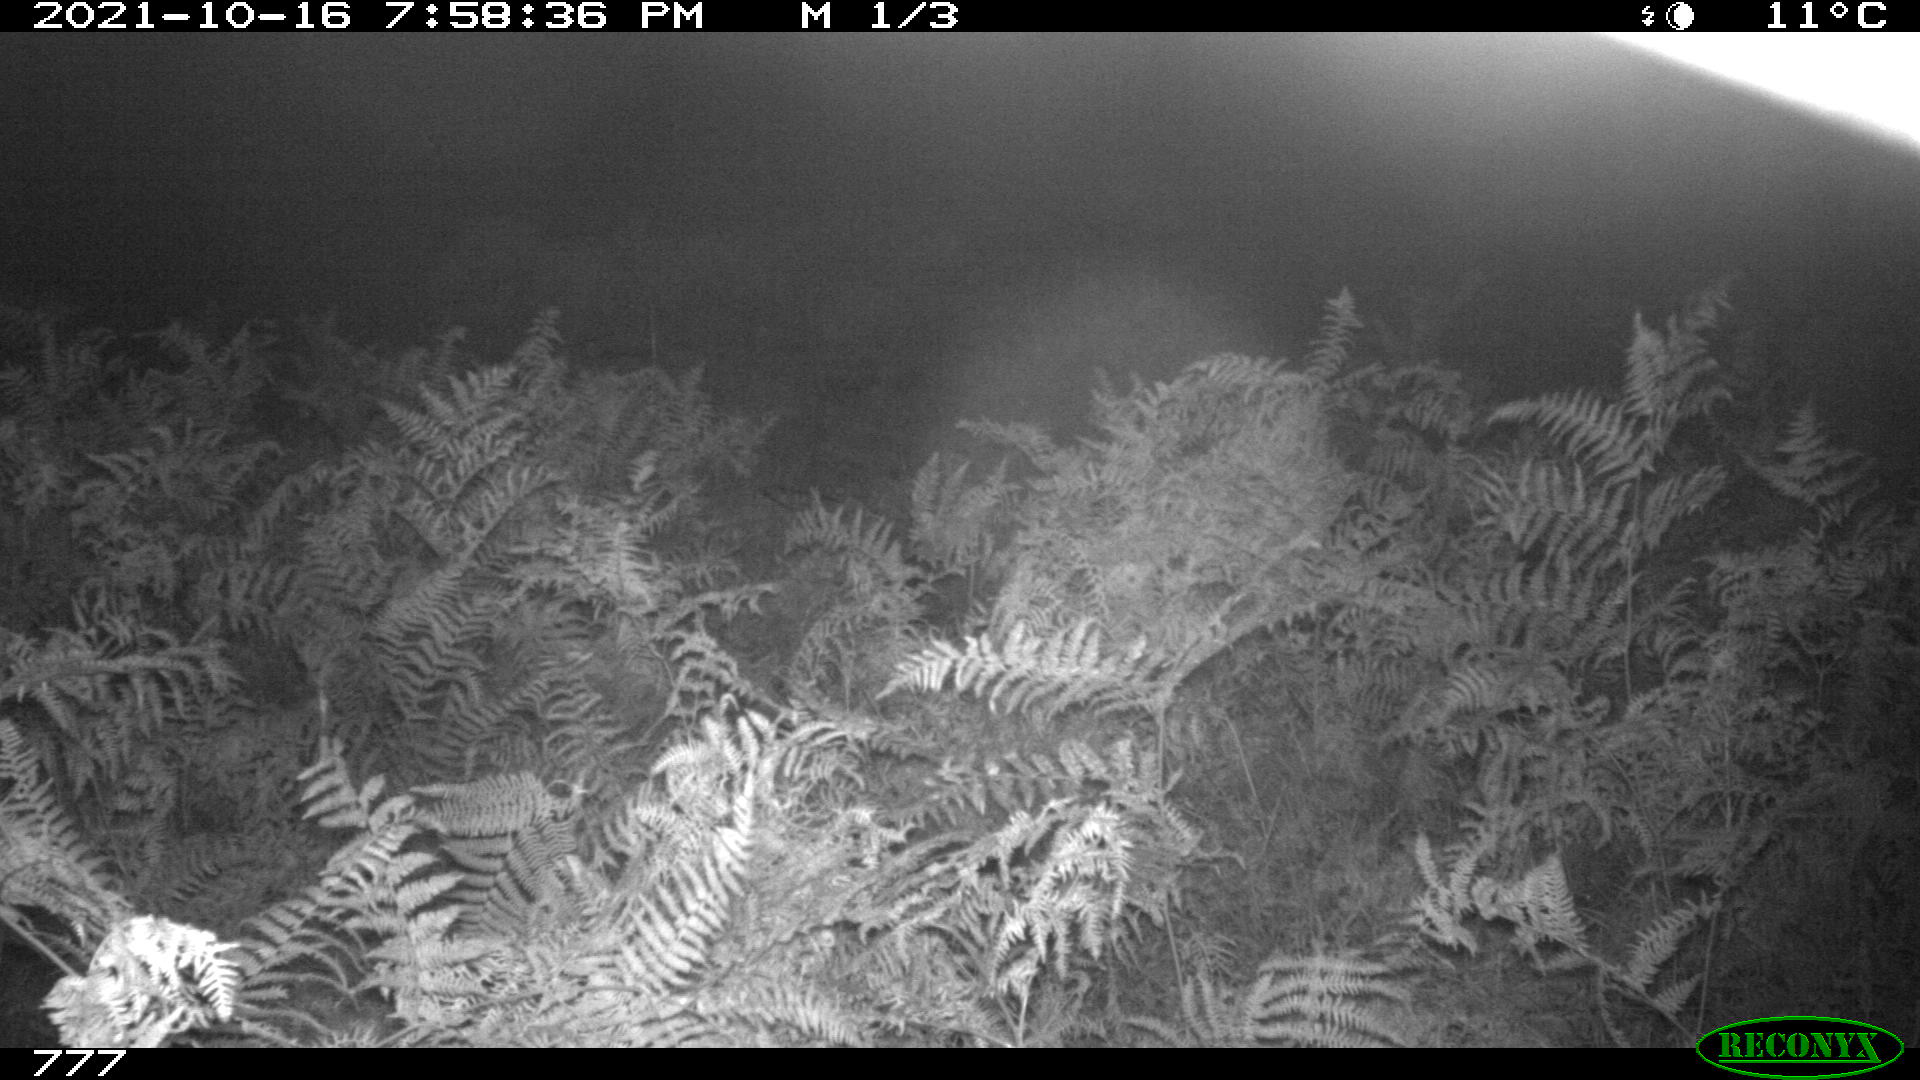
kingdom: Animalia
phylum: Chordata
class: Mammalia
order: Artiodactyla
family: Bovidae
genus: Bos
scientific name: Bos taurus
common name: Domesticated cattle
